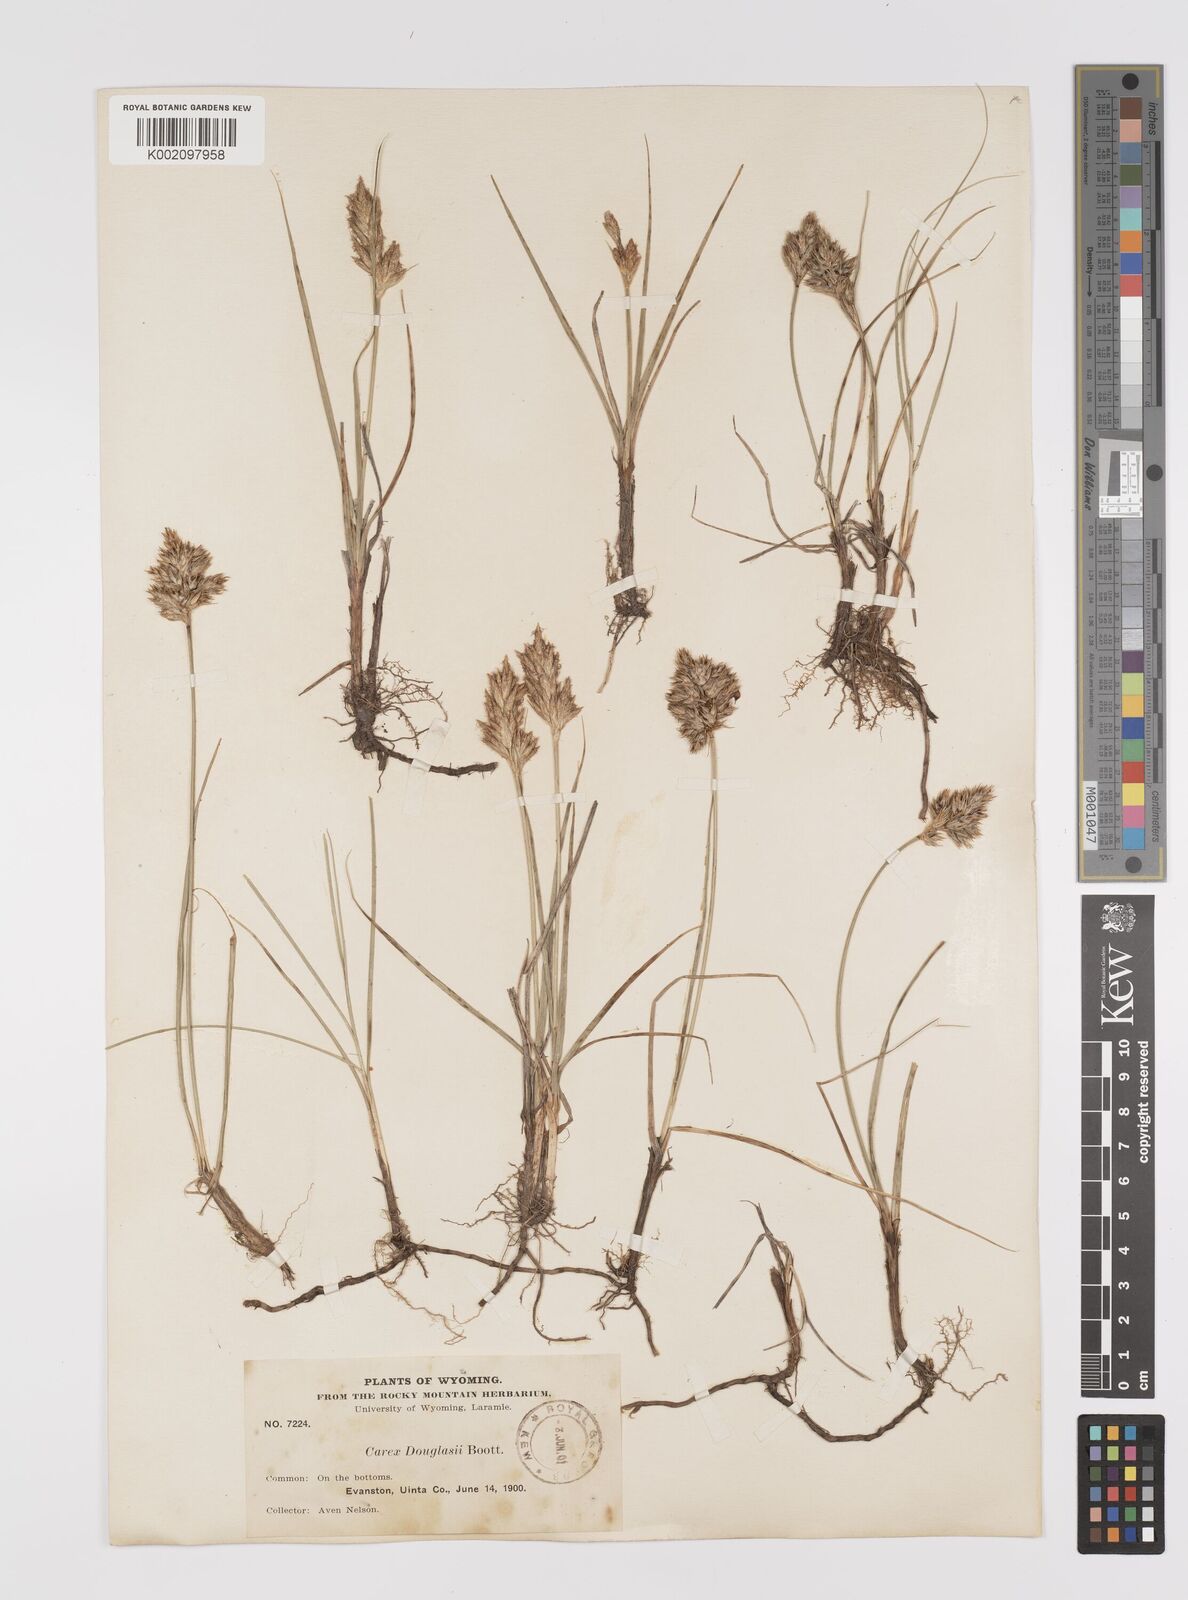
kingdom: Plantae
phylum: Tracheophyta
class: Liliopsida
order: Poales
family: Cyperaceae
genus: Carex
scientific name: Carex douglasii
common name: Douglas' sedge
